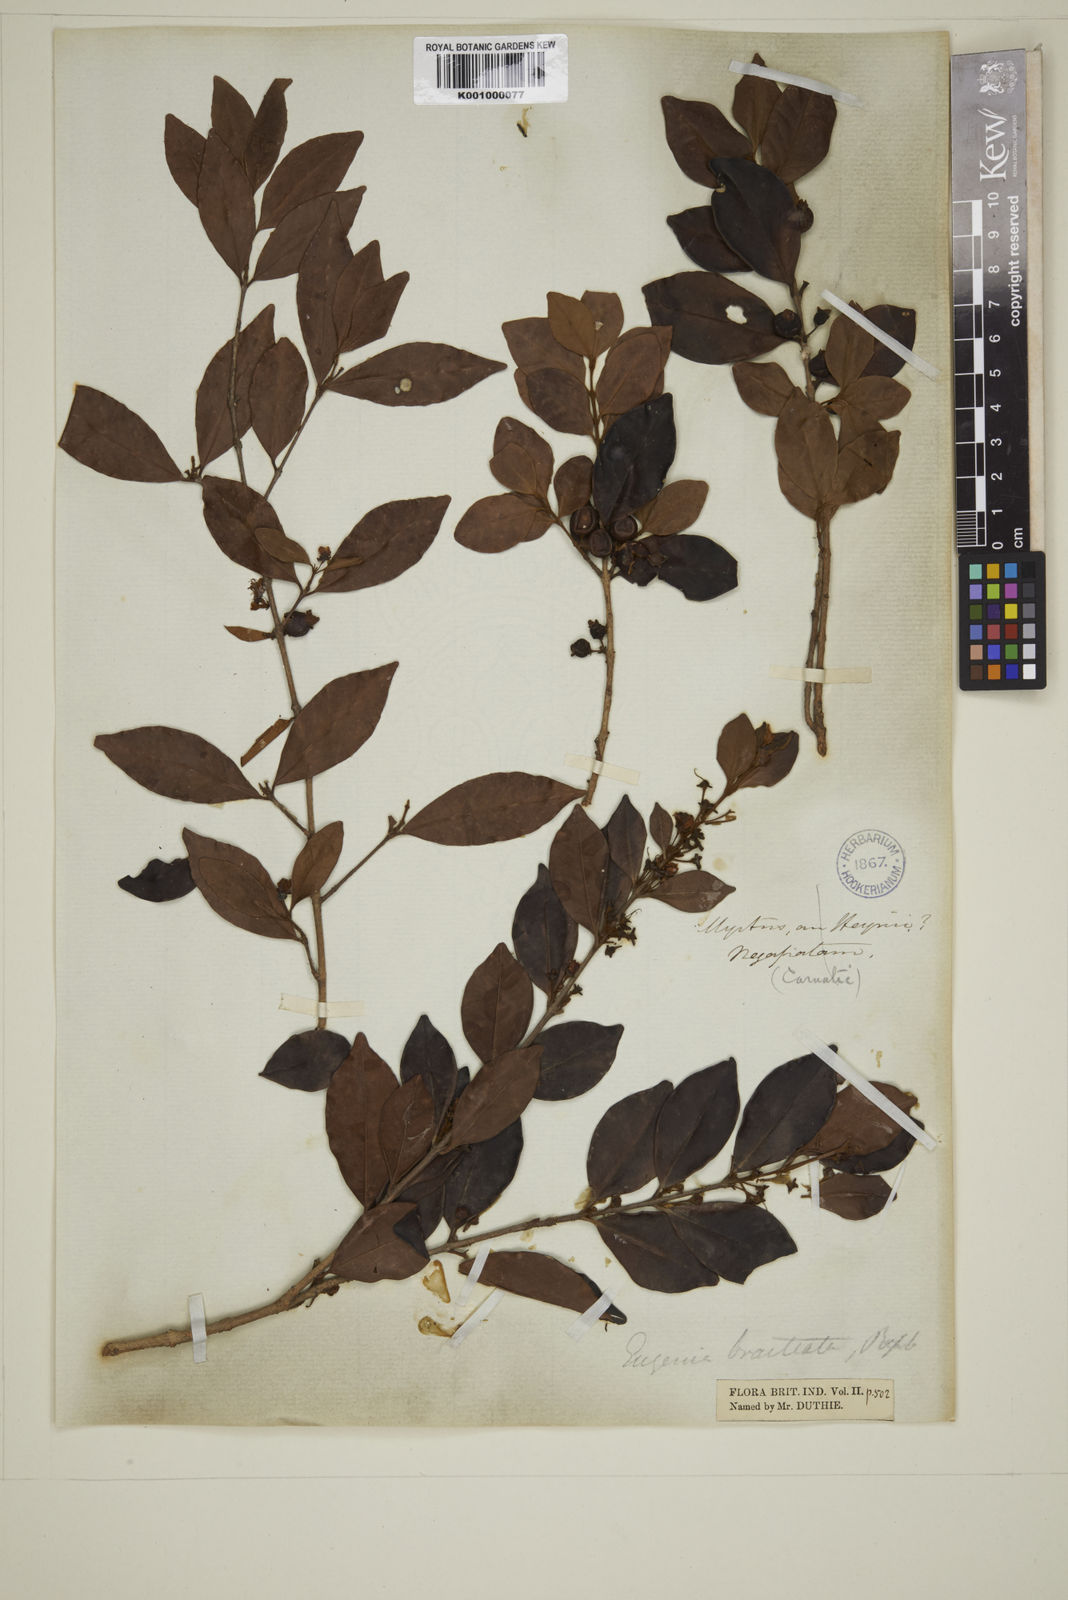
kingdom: Plantae
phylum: Tracheophyta
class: Magnoliopsida
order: Myrtales
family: Myrtaceae
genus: Myrcia
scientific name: Myrcia bracteata
